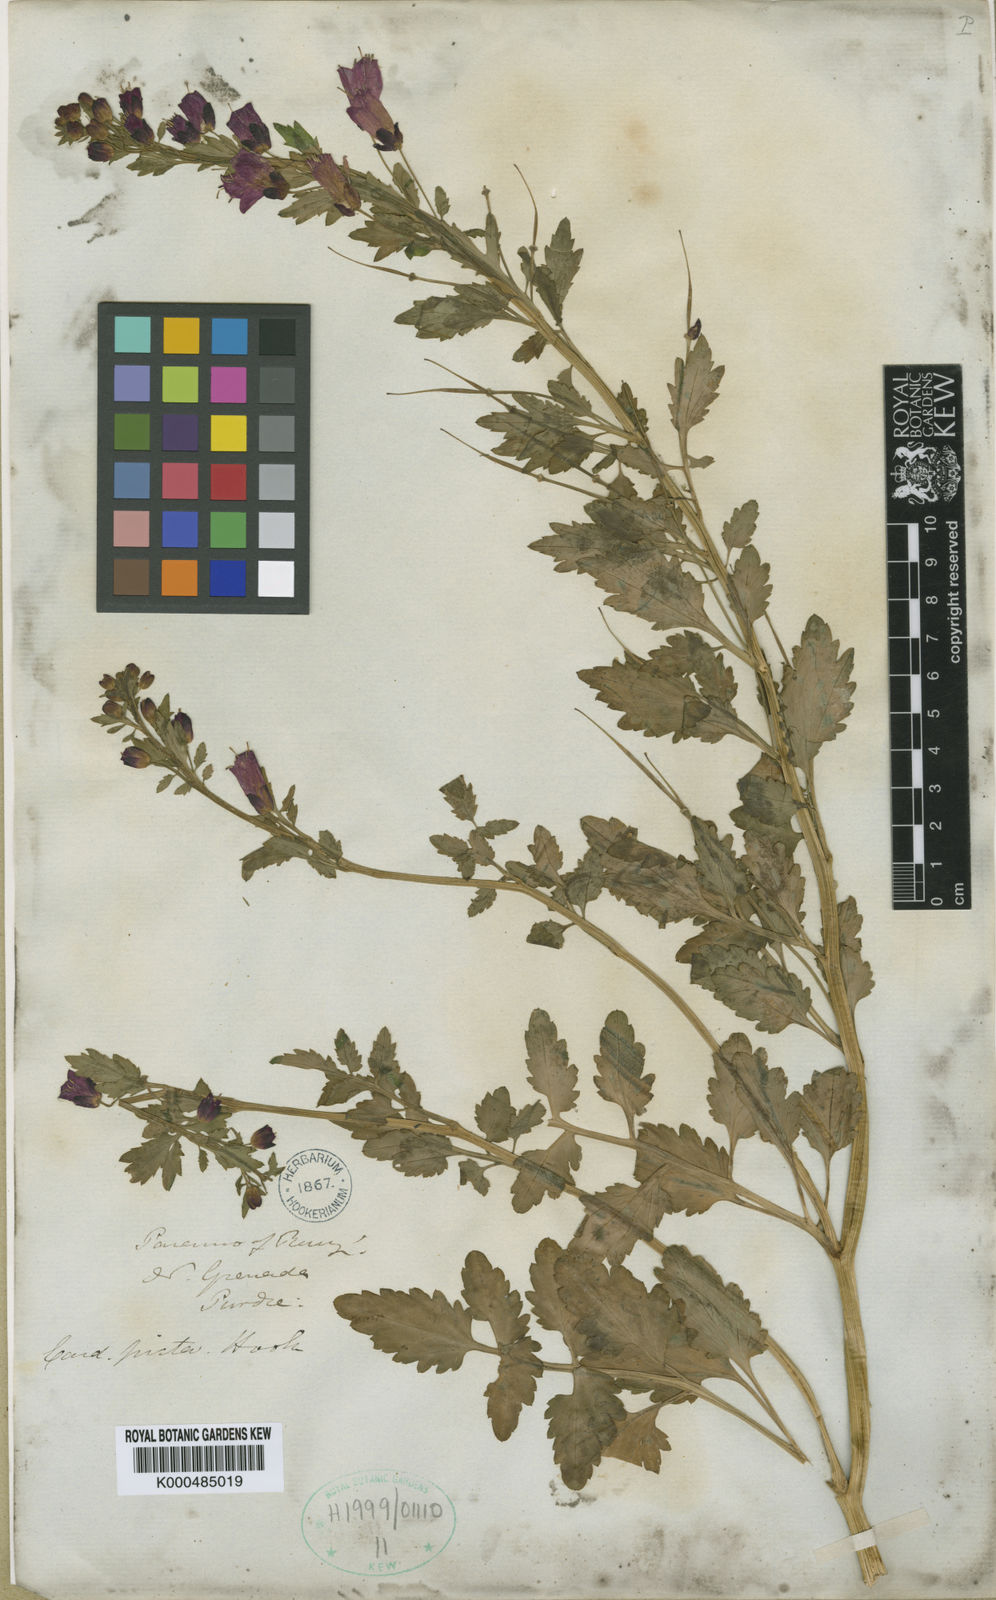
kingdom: Plantae
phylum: Tracheophyta
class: Magnoliopsida
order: Brassicales
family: Brassicaceae
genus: Cardamine
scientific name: Cardamine picta
